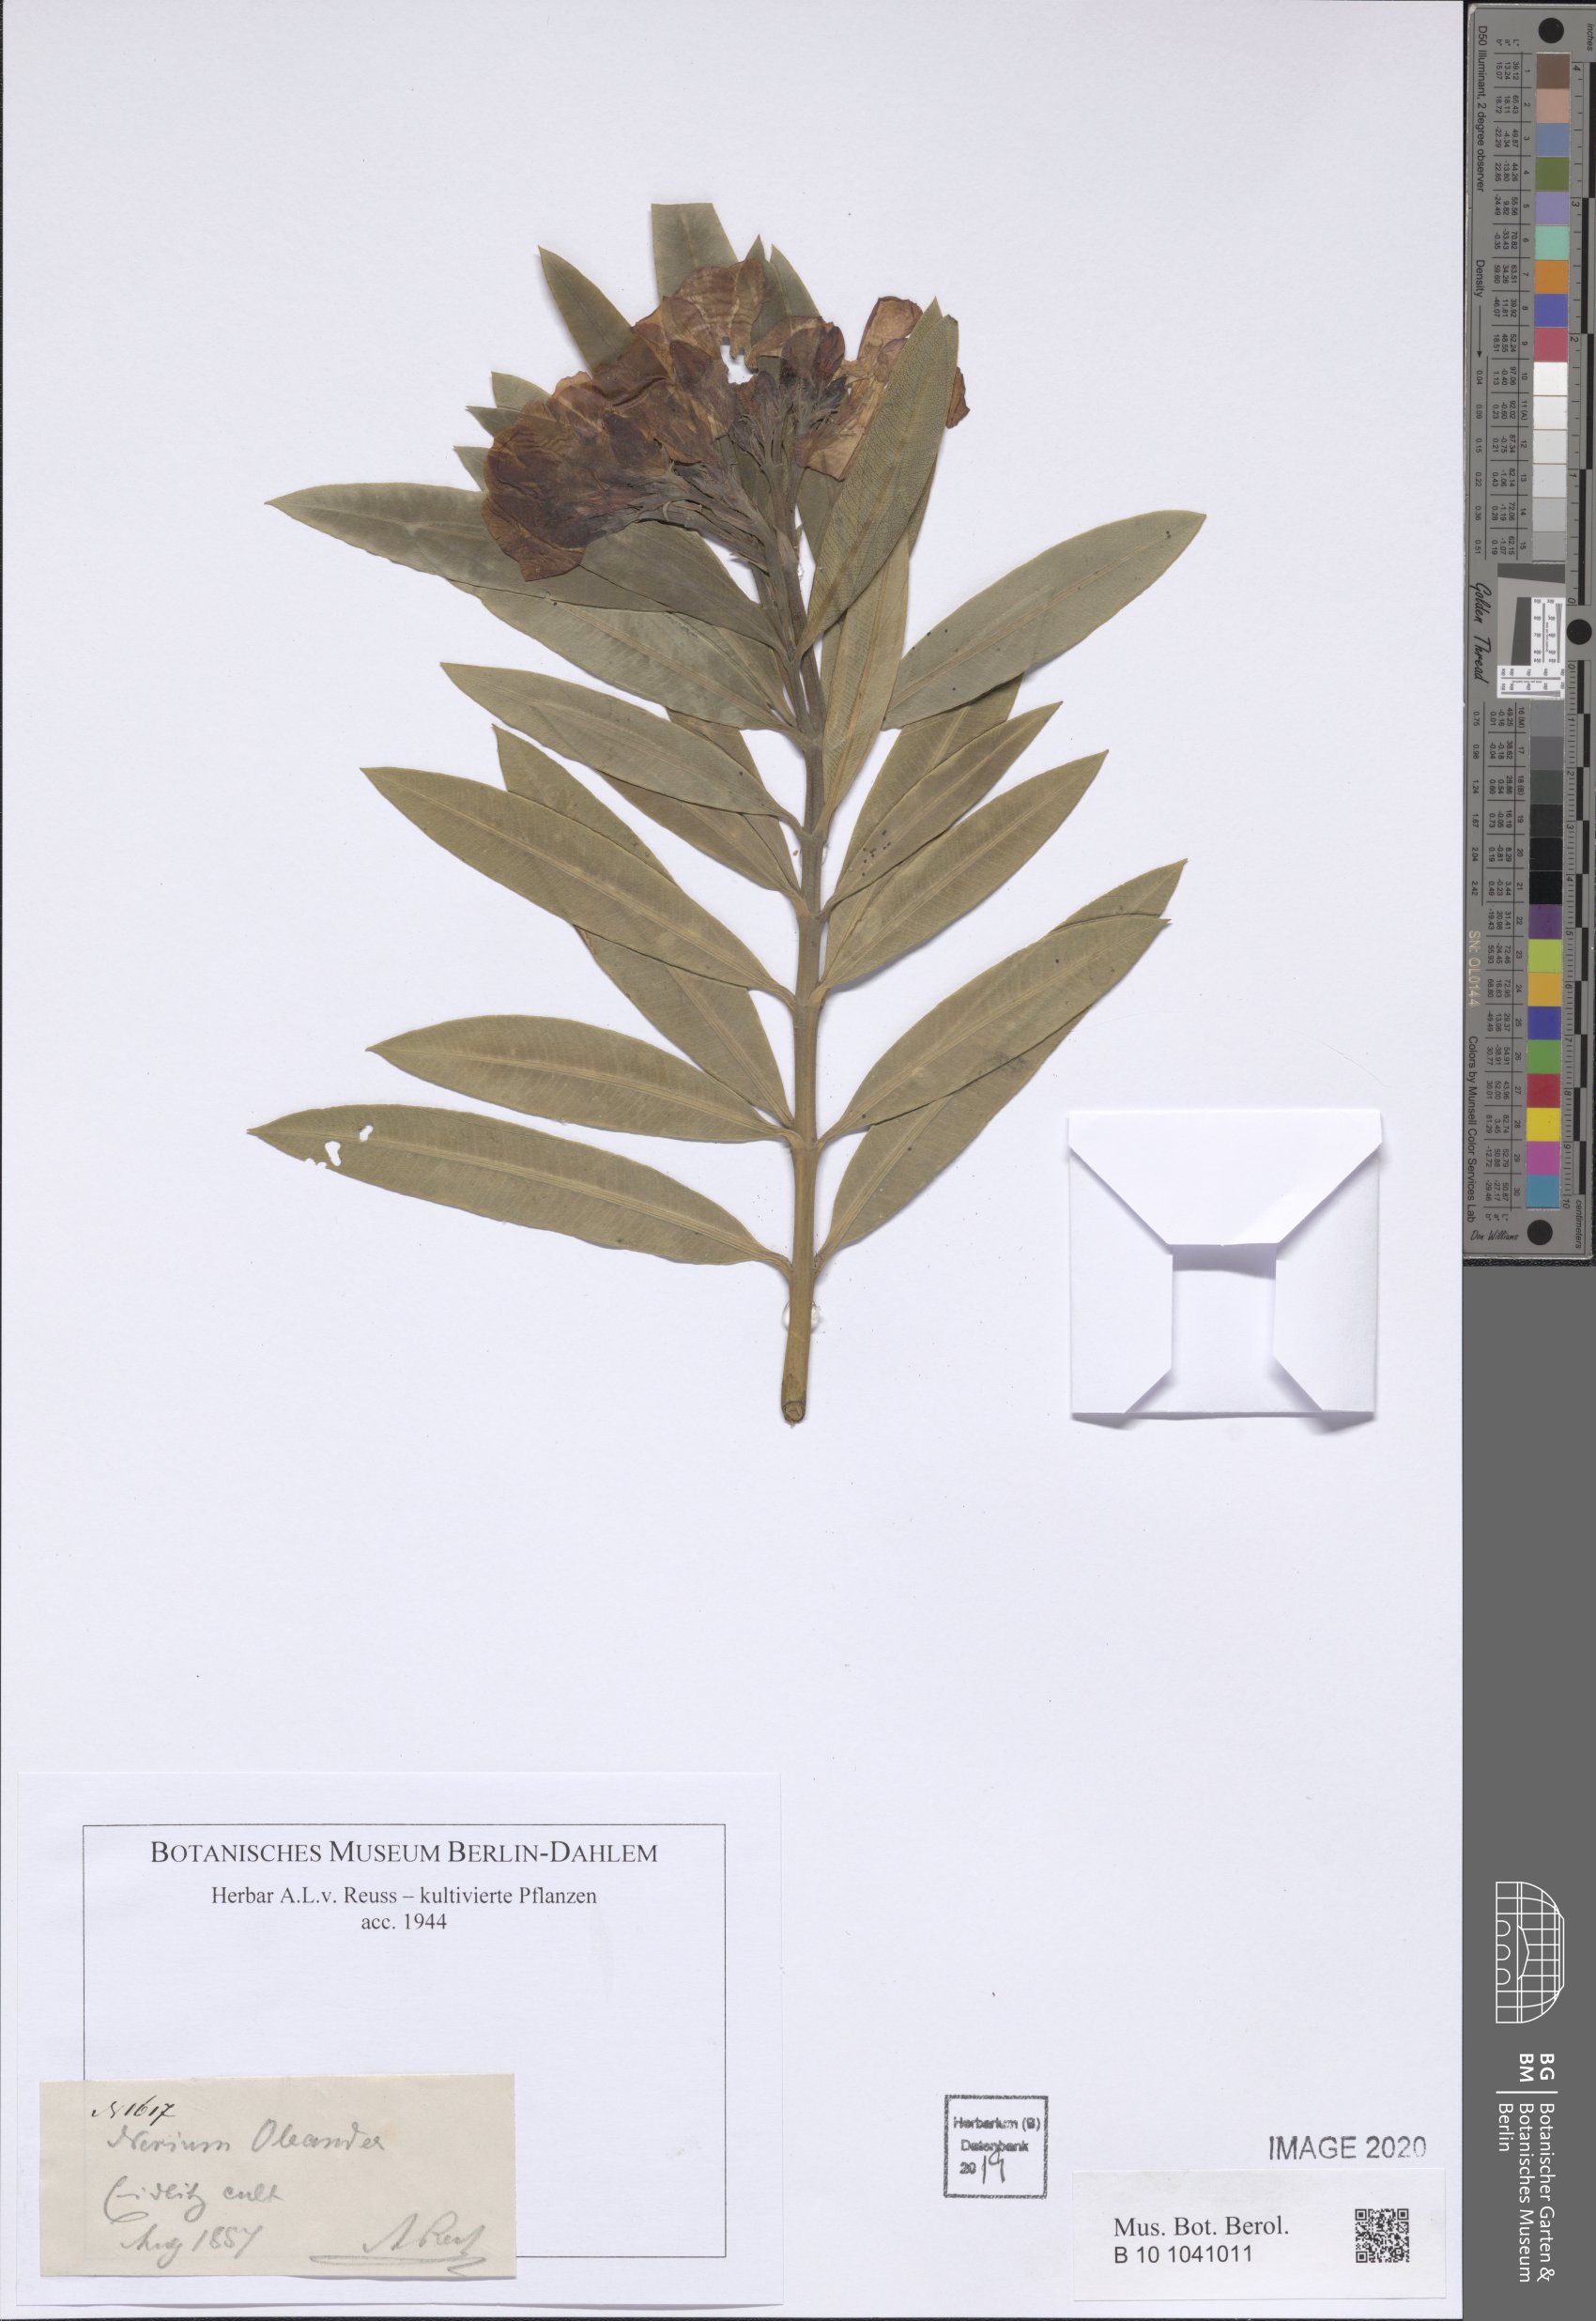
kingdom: Plantae
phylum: Tracheophyta
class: Magnoliopsida
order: Gentianales
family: Apocynaceae
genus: Nerium
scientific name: Nerium oleander
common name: Oleander
